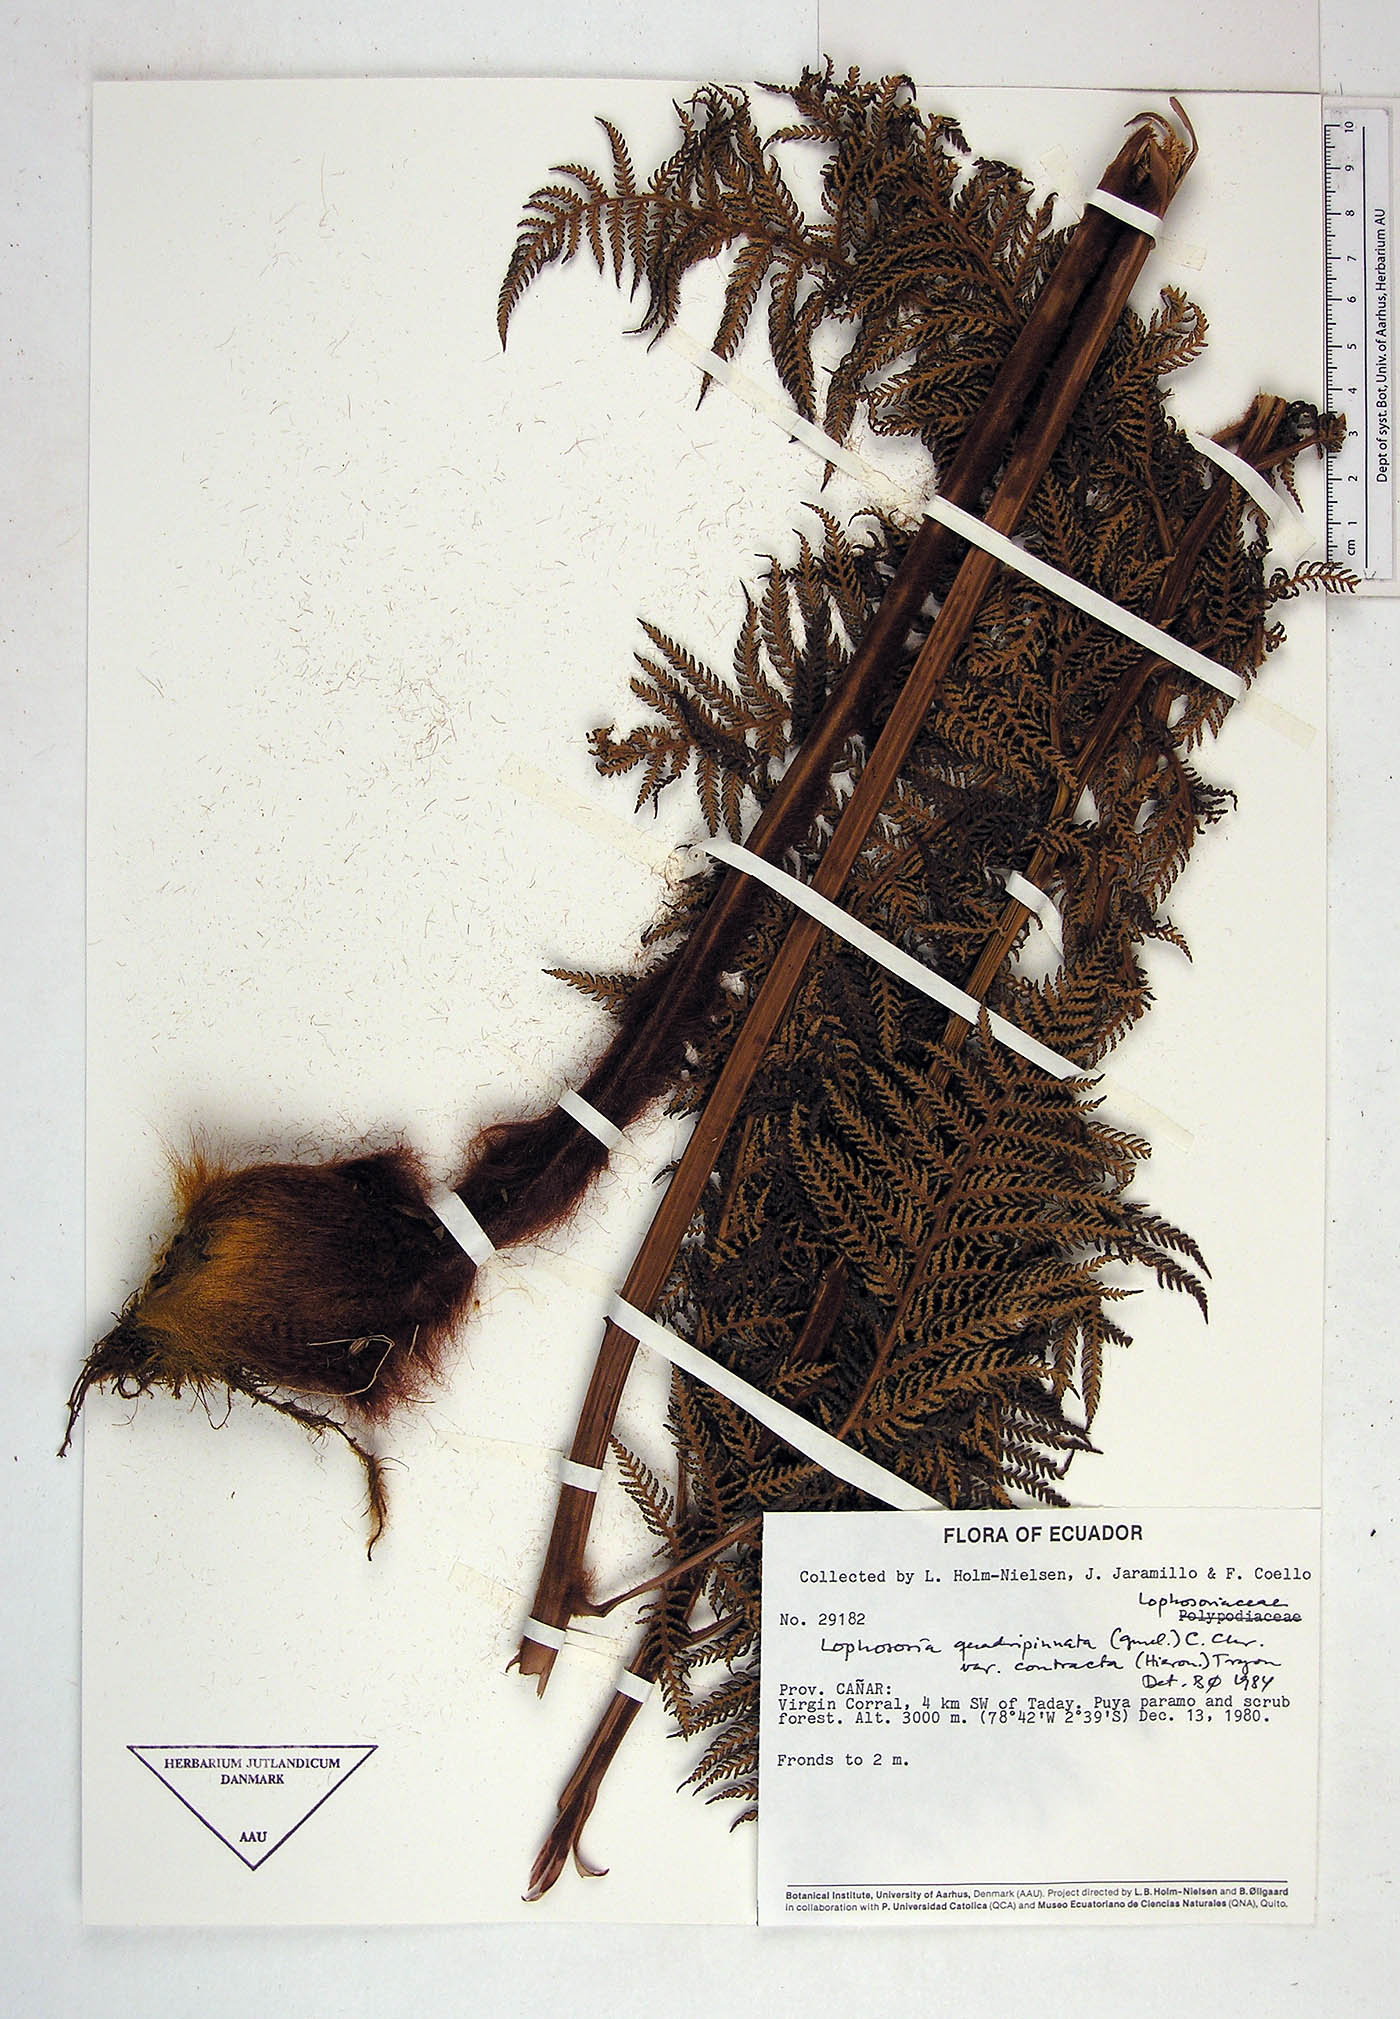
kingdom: Plantae
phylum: Tracheophyta
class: Polypodiopsida
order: Cyatheales
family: Dicksoniaceae
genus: Lophosoria
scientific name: Lophosoria quadripinnata
